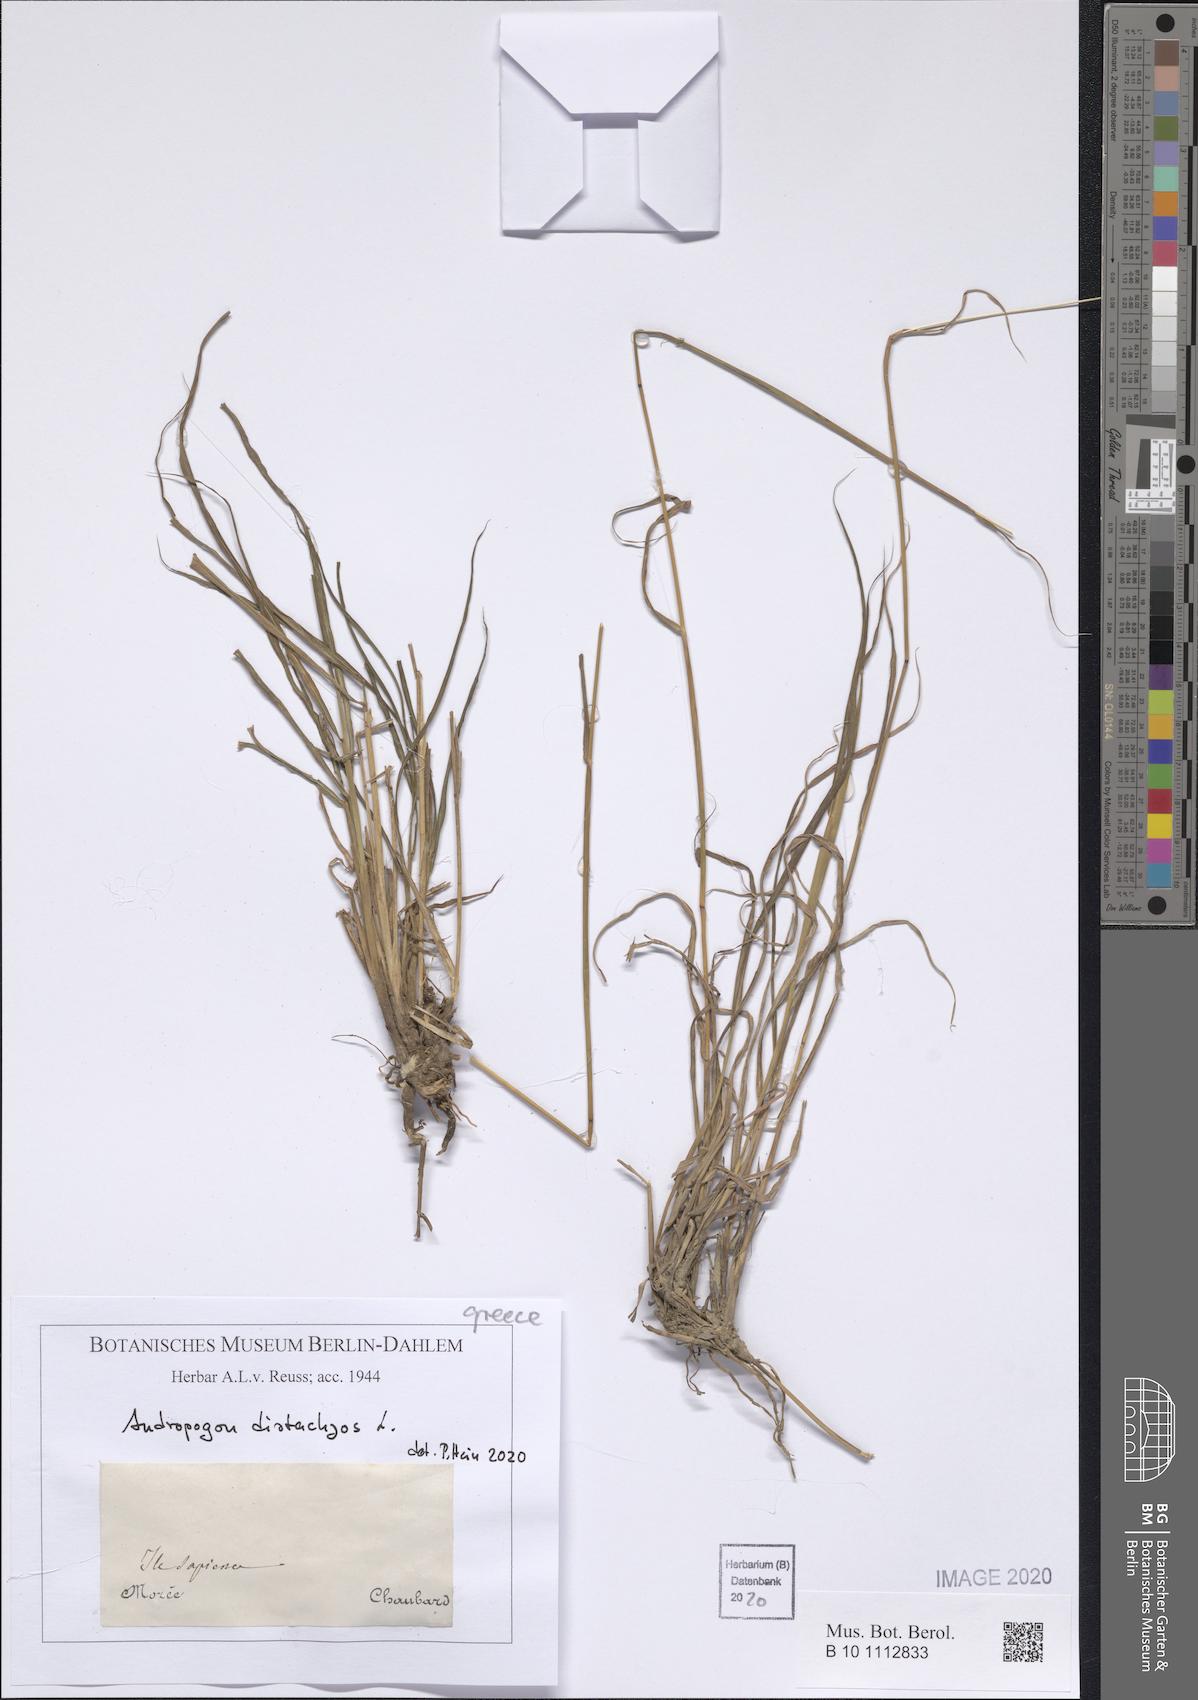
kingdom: Plantae
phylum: Tracheophyta
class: Liliopsida
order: Poales
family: Poaceae
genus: Andropogon
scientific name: Andropogon distachyos
